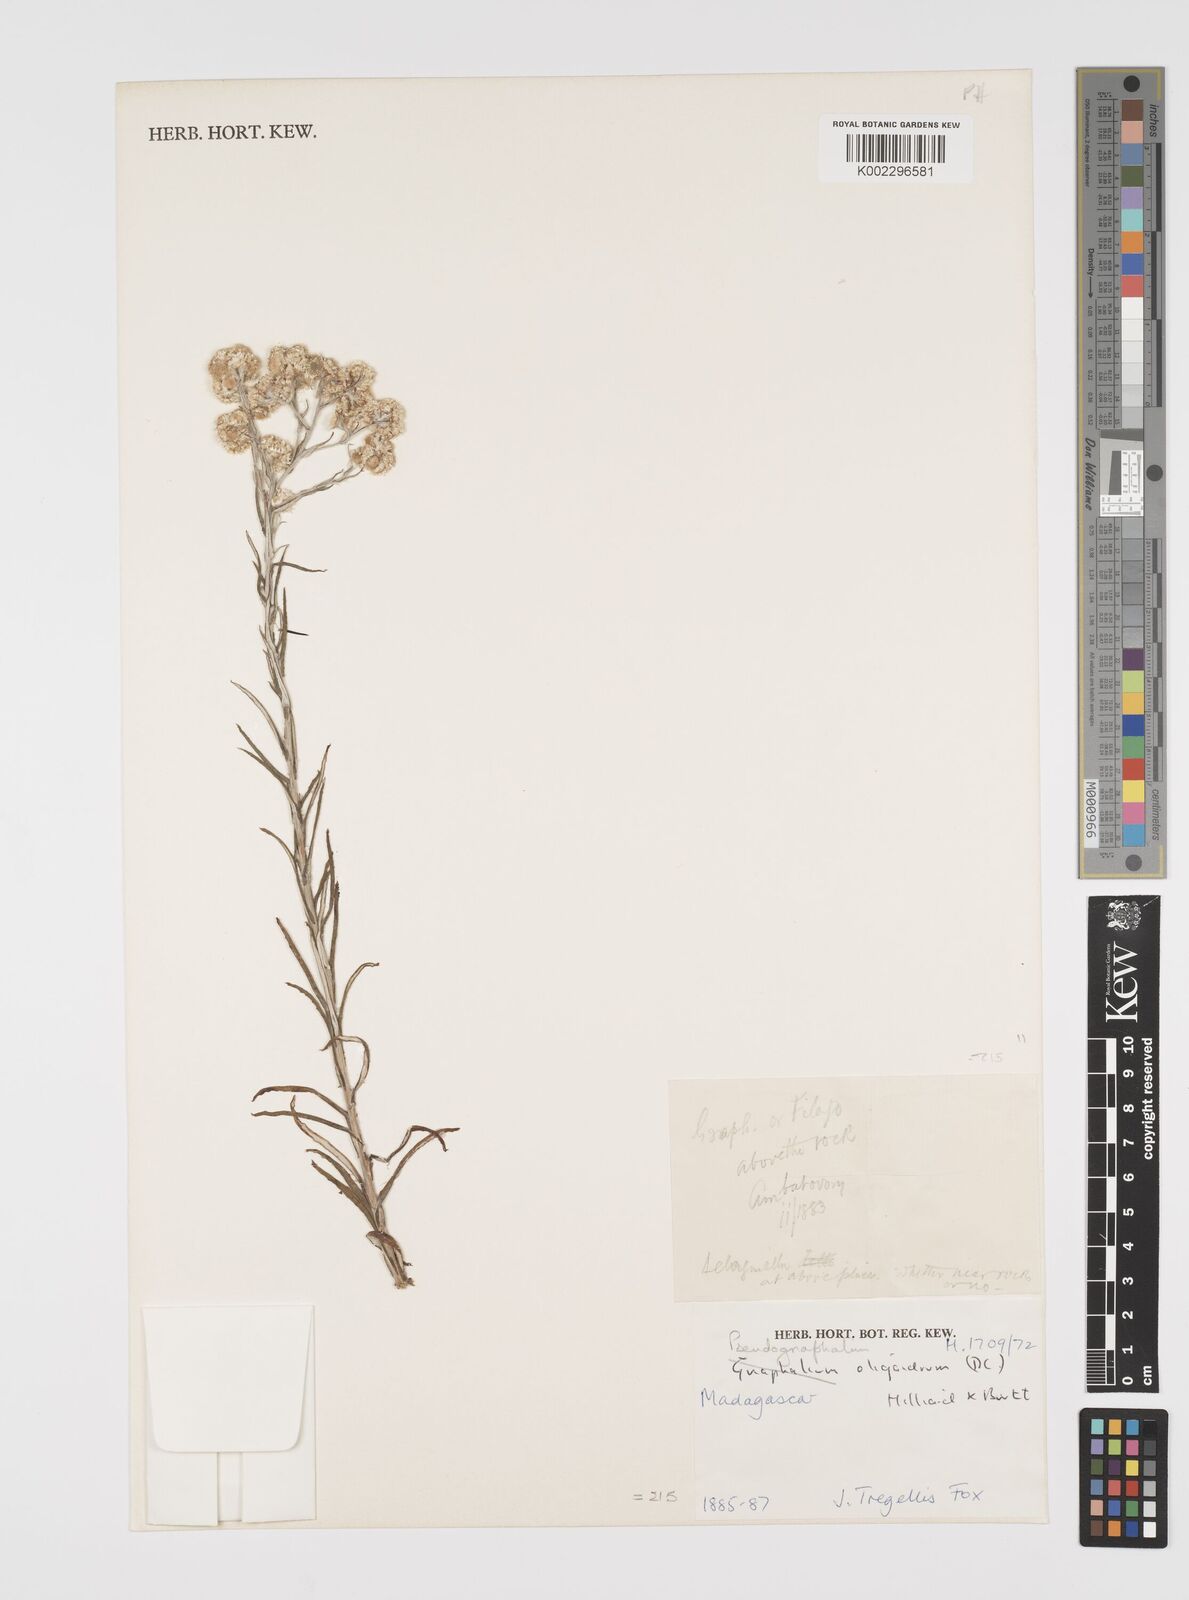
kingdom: Plantae
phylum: Tracheophyta
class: Magnoliopsida
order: Asterales
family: Asteraceae
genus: Pseudognaphalium
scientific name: Pseudognaphalium oligandrum
